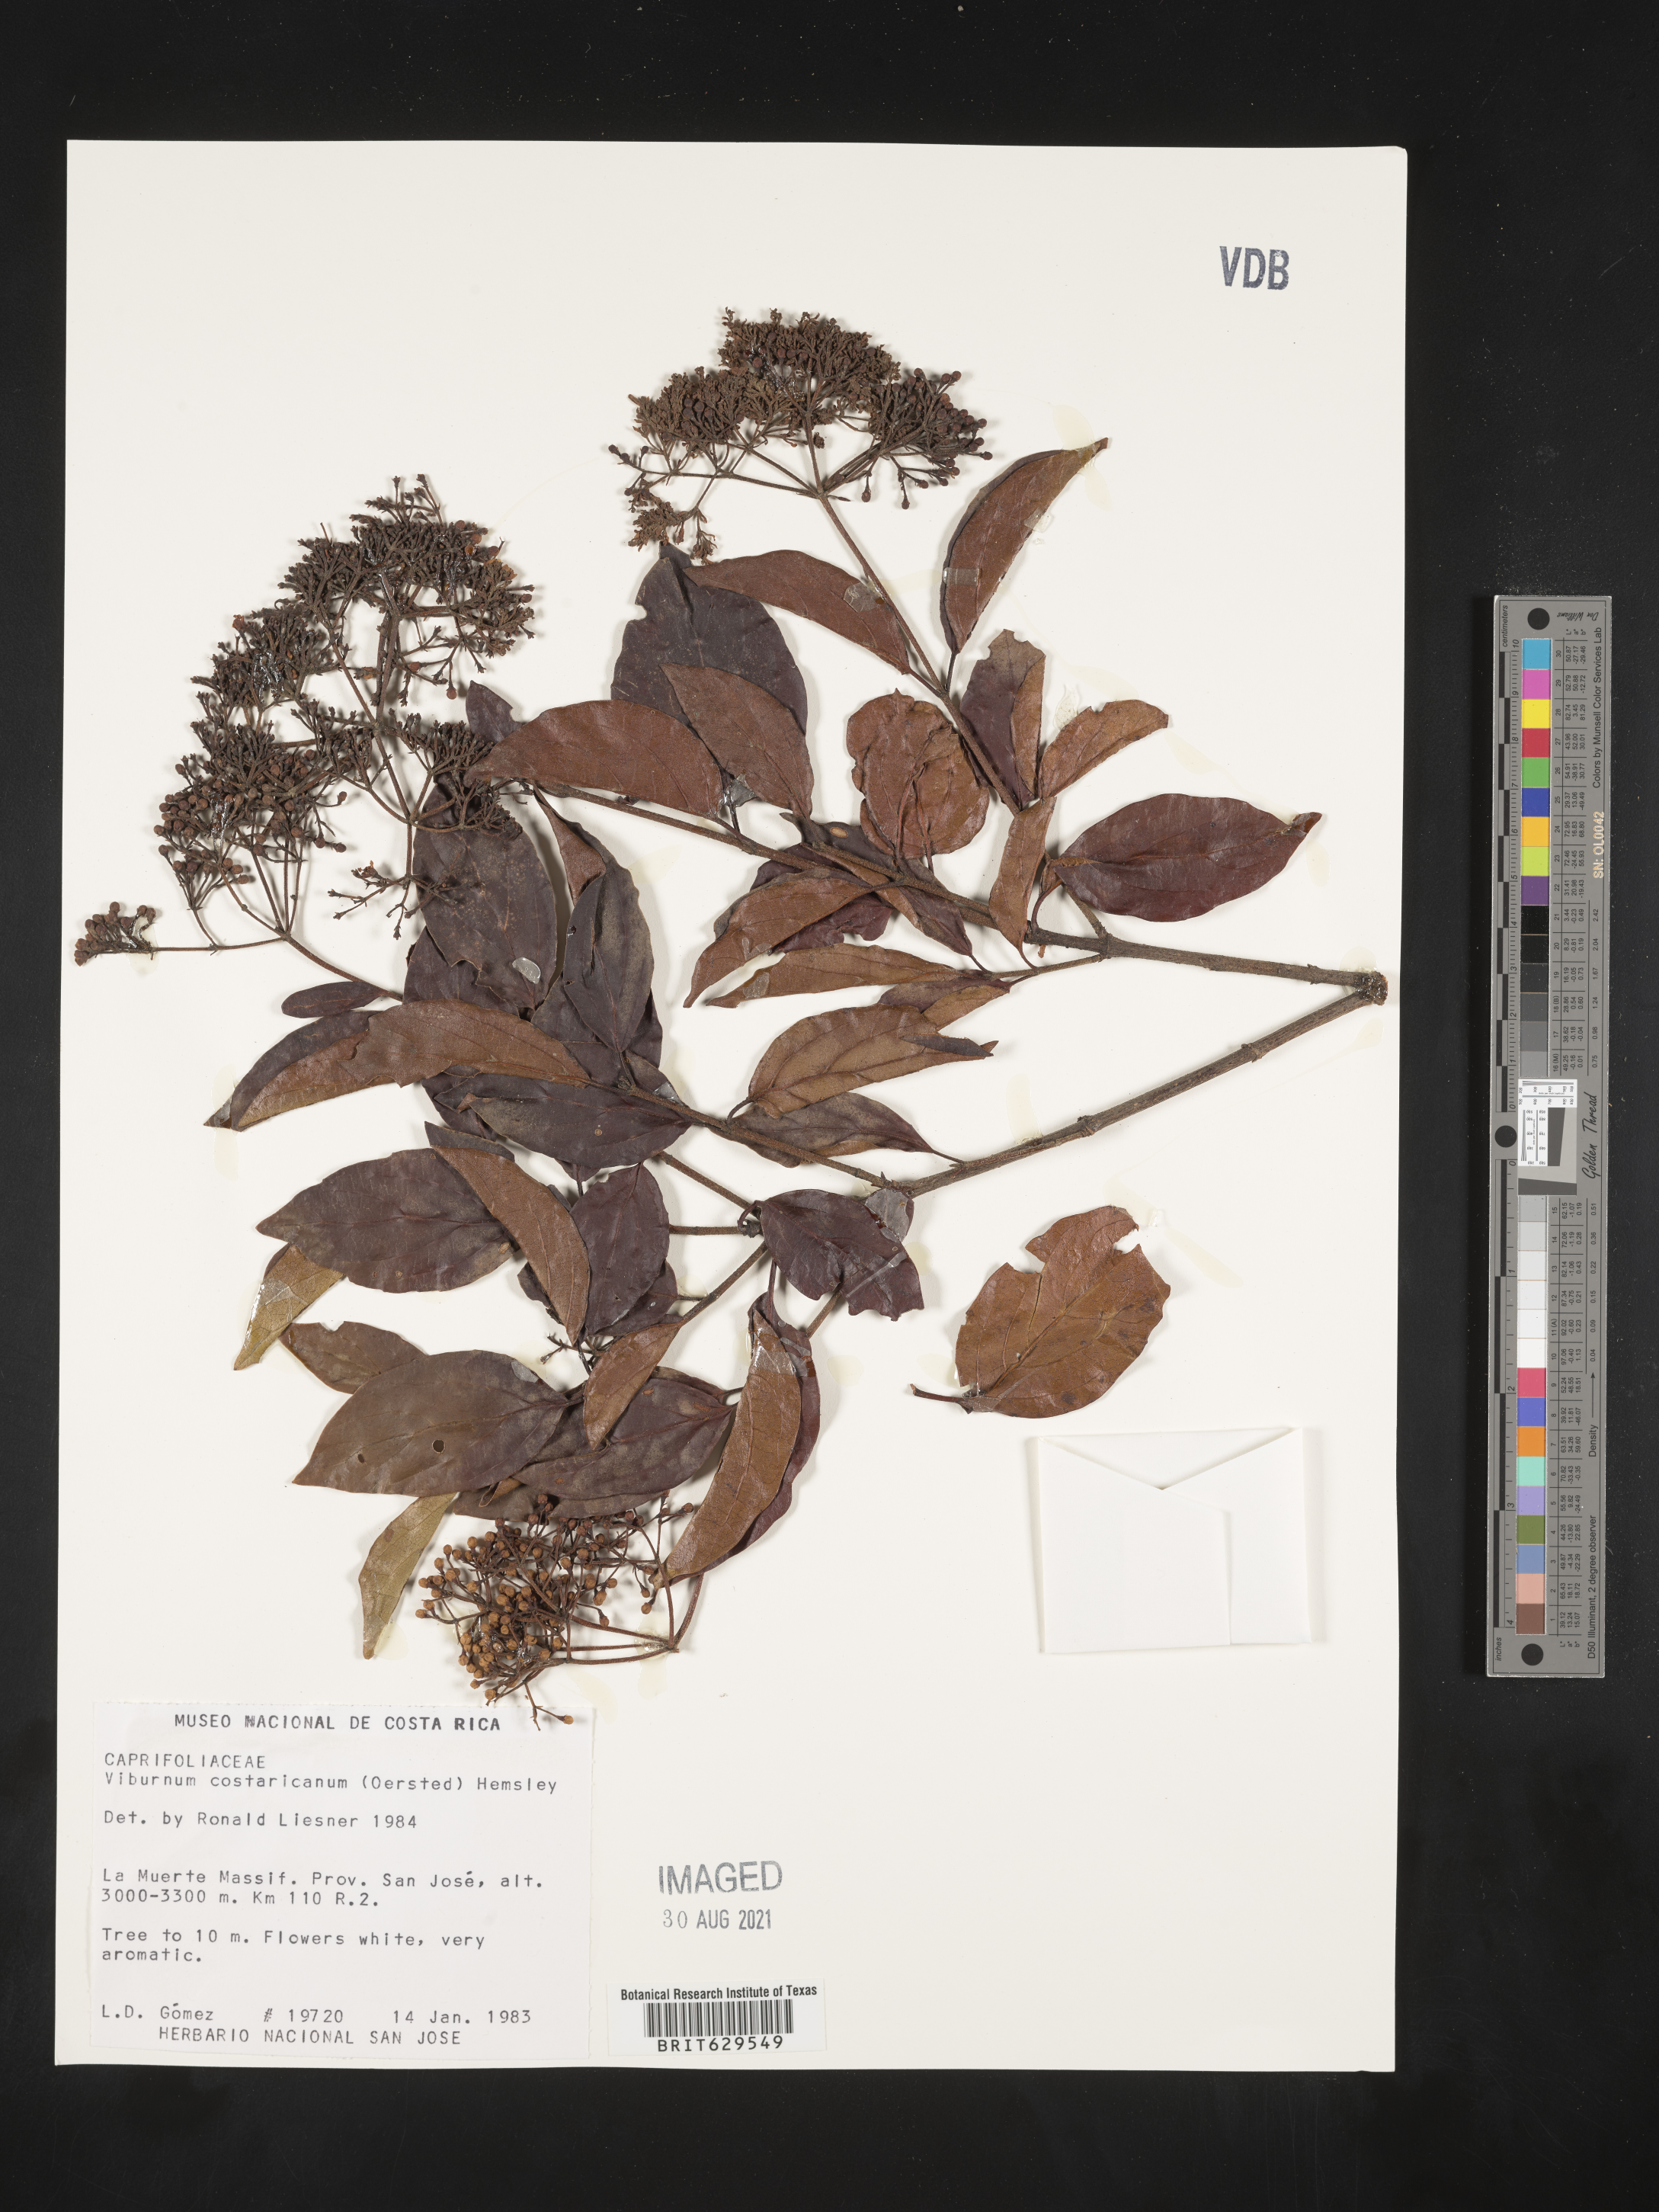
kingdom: Plantae
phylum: Tracheophyta
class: Magnoliopsida
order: Dipsacales
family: Viburnaceae
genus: Viburnum
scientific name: Viburnum costaricanum
